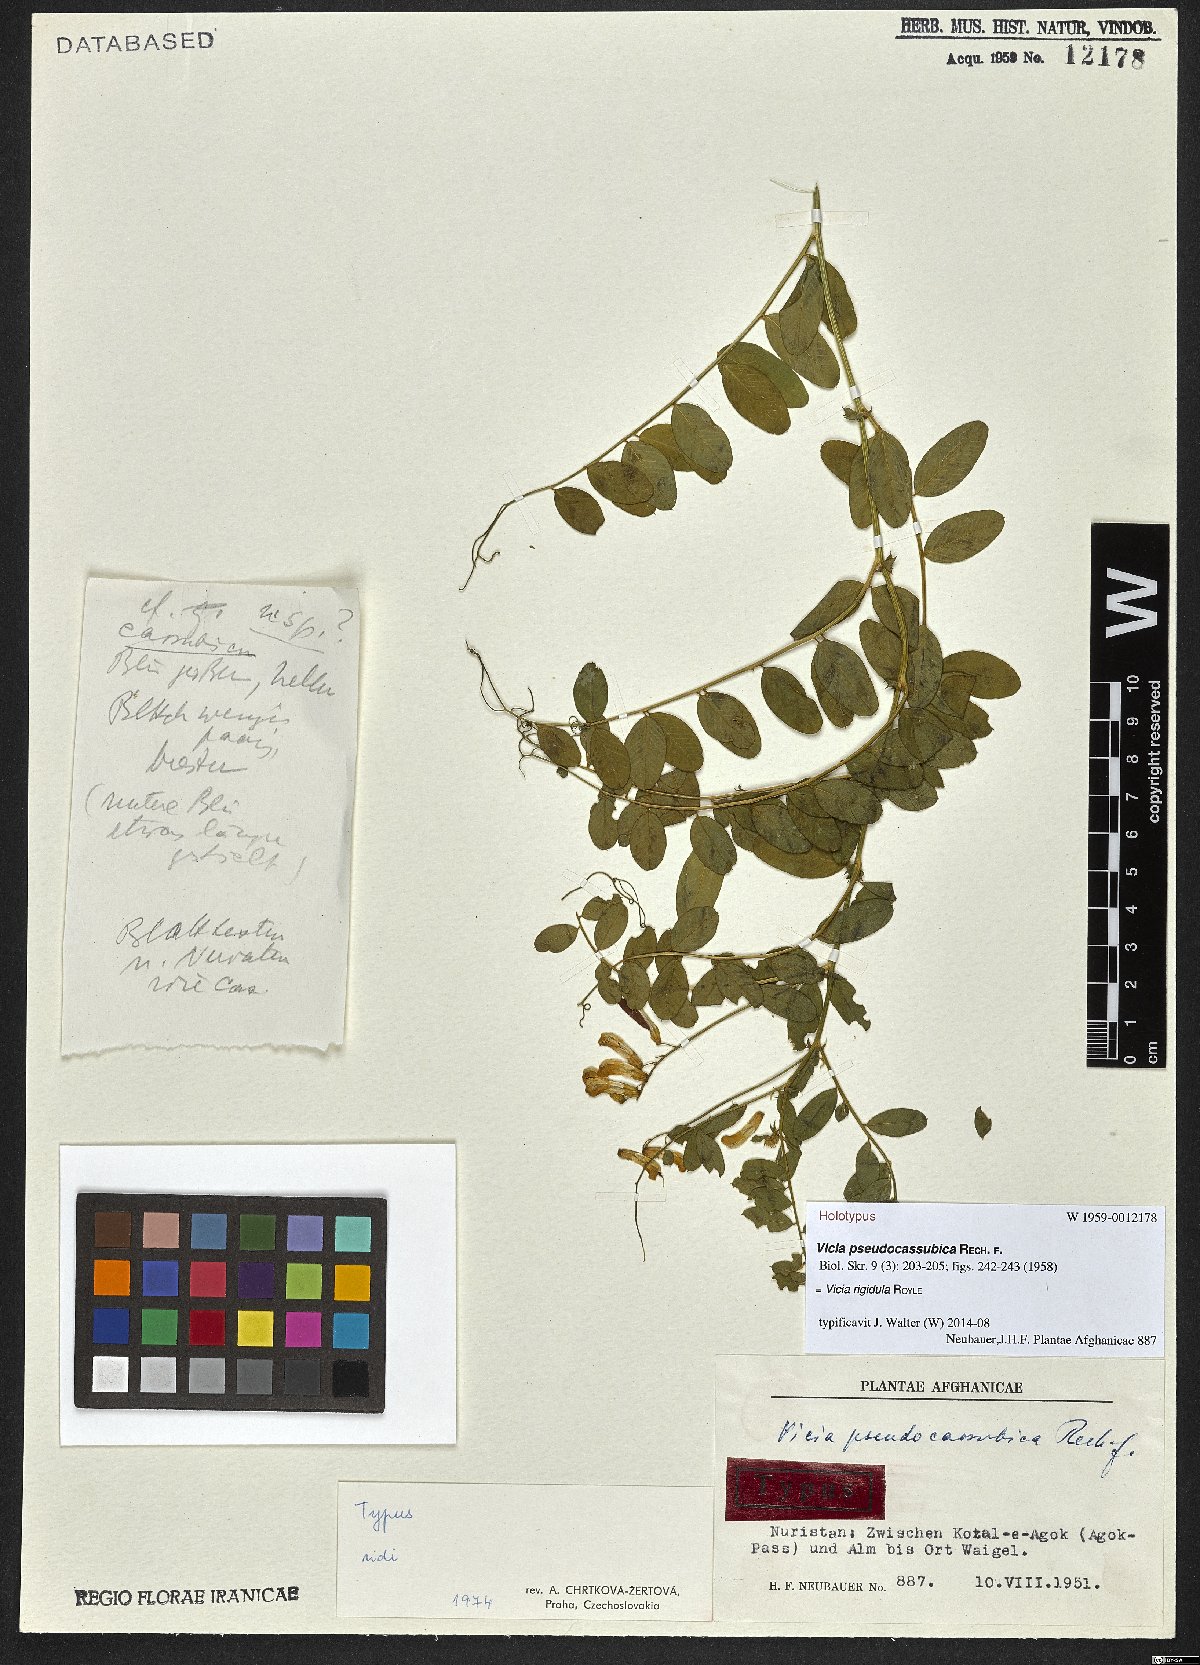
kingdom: Plantae
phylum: Tracheophyta
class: Magnoliopsida
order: Fabales
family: Fabaceae
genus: Vicia
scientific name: Vicia rigidula
